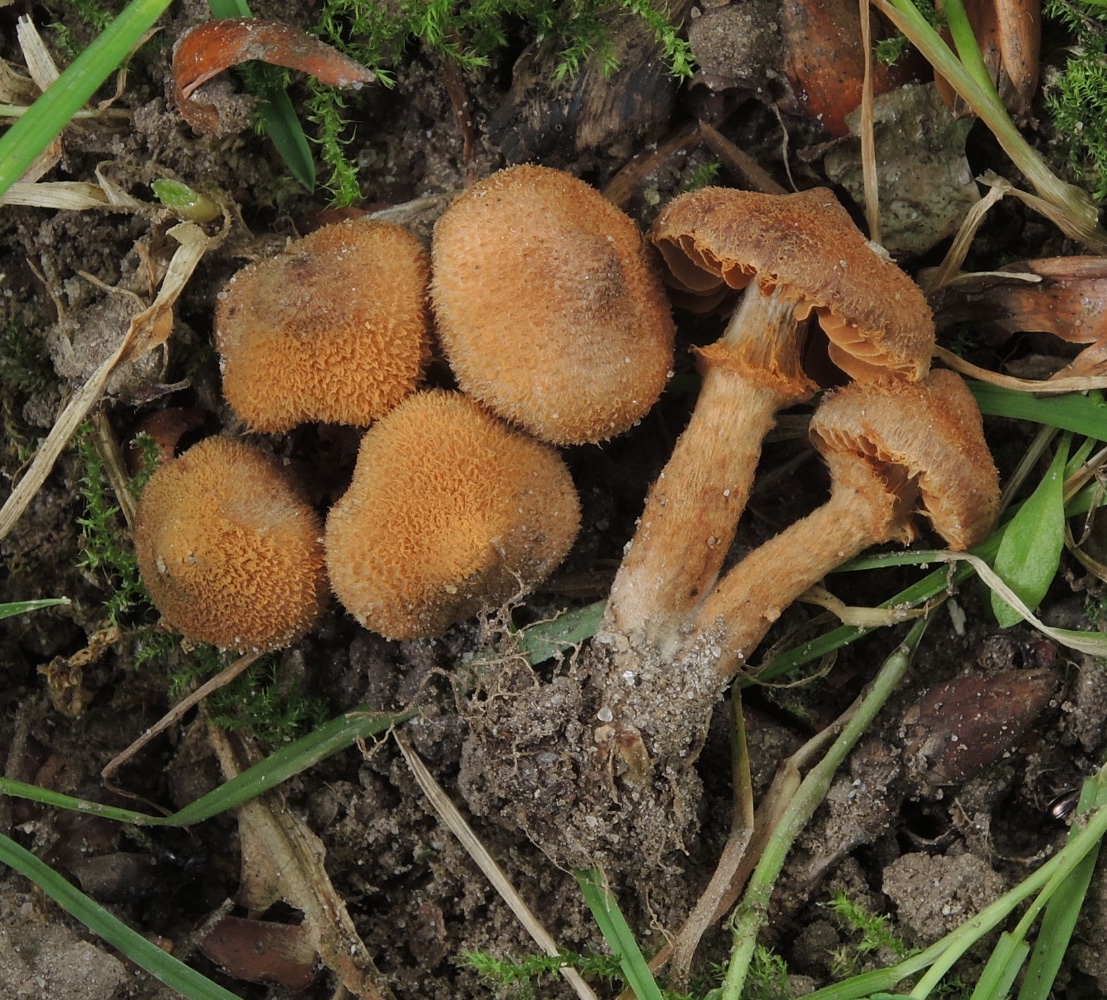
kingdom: Fungi
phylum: Basidiomycota
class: Agaricomycetes
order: Agaricales
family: Cortinariaceae
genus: Cortinarius
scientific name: Cortinarius quercoconicus
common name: agernskål-slørhat
